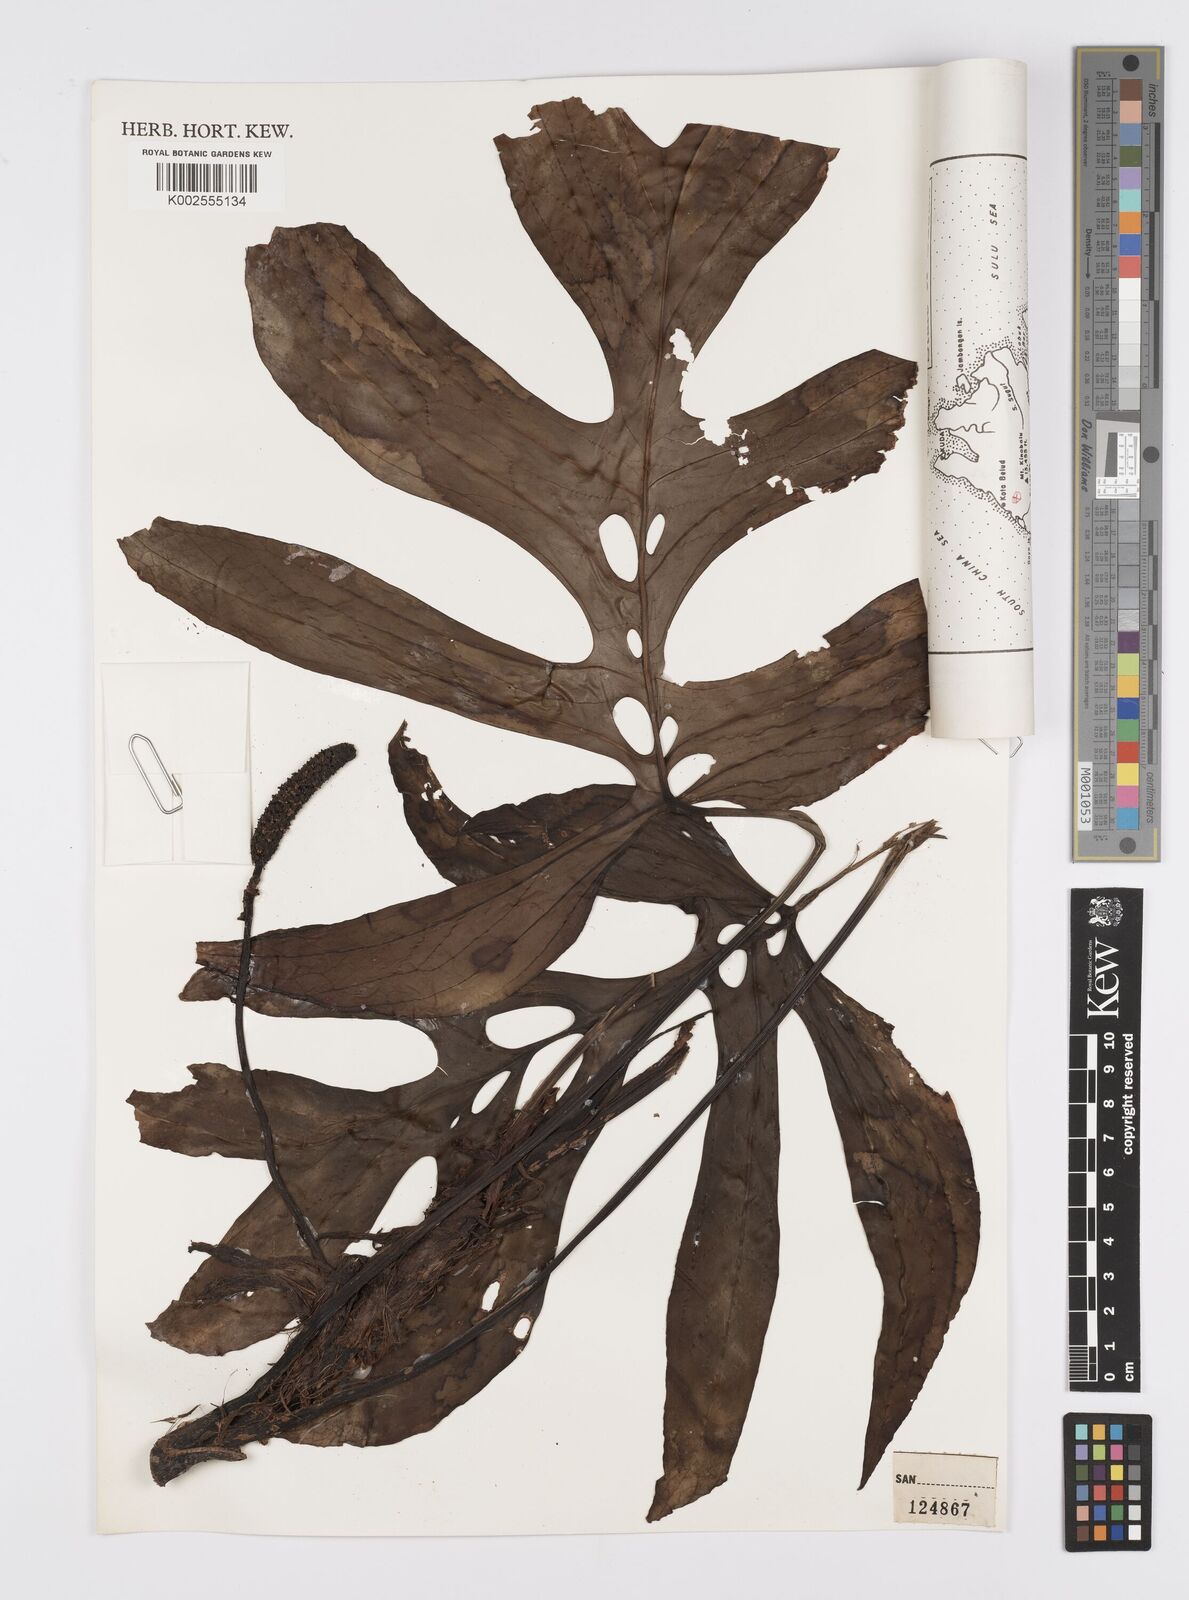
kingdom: Plantae
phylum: Tracheophyta
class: Liliopsida
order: Alismatales
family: Araceae
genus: Amydrium
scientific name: Amydrium medium
